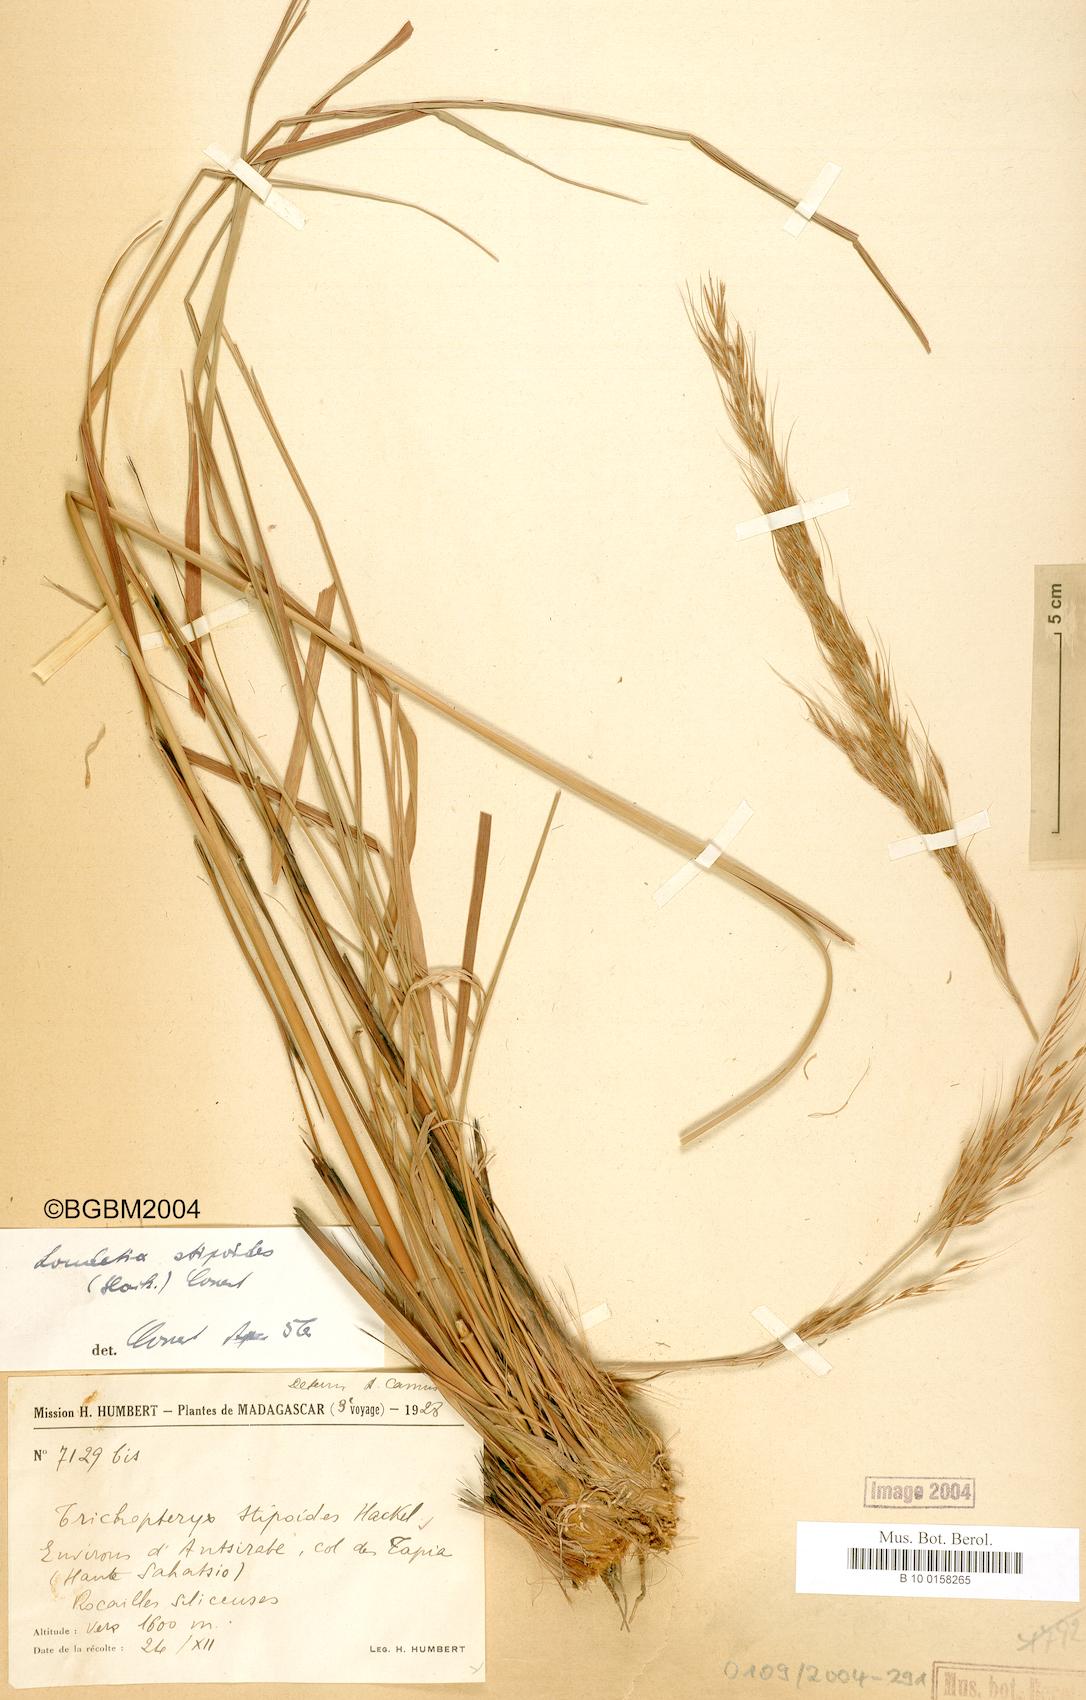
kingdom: Plantae
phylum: Tracheophyta
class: Liliopsida
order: Poales
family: Poaceae
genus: Loudetia
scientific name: Loudetia simplex
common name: Common russet grass
